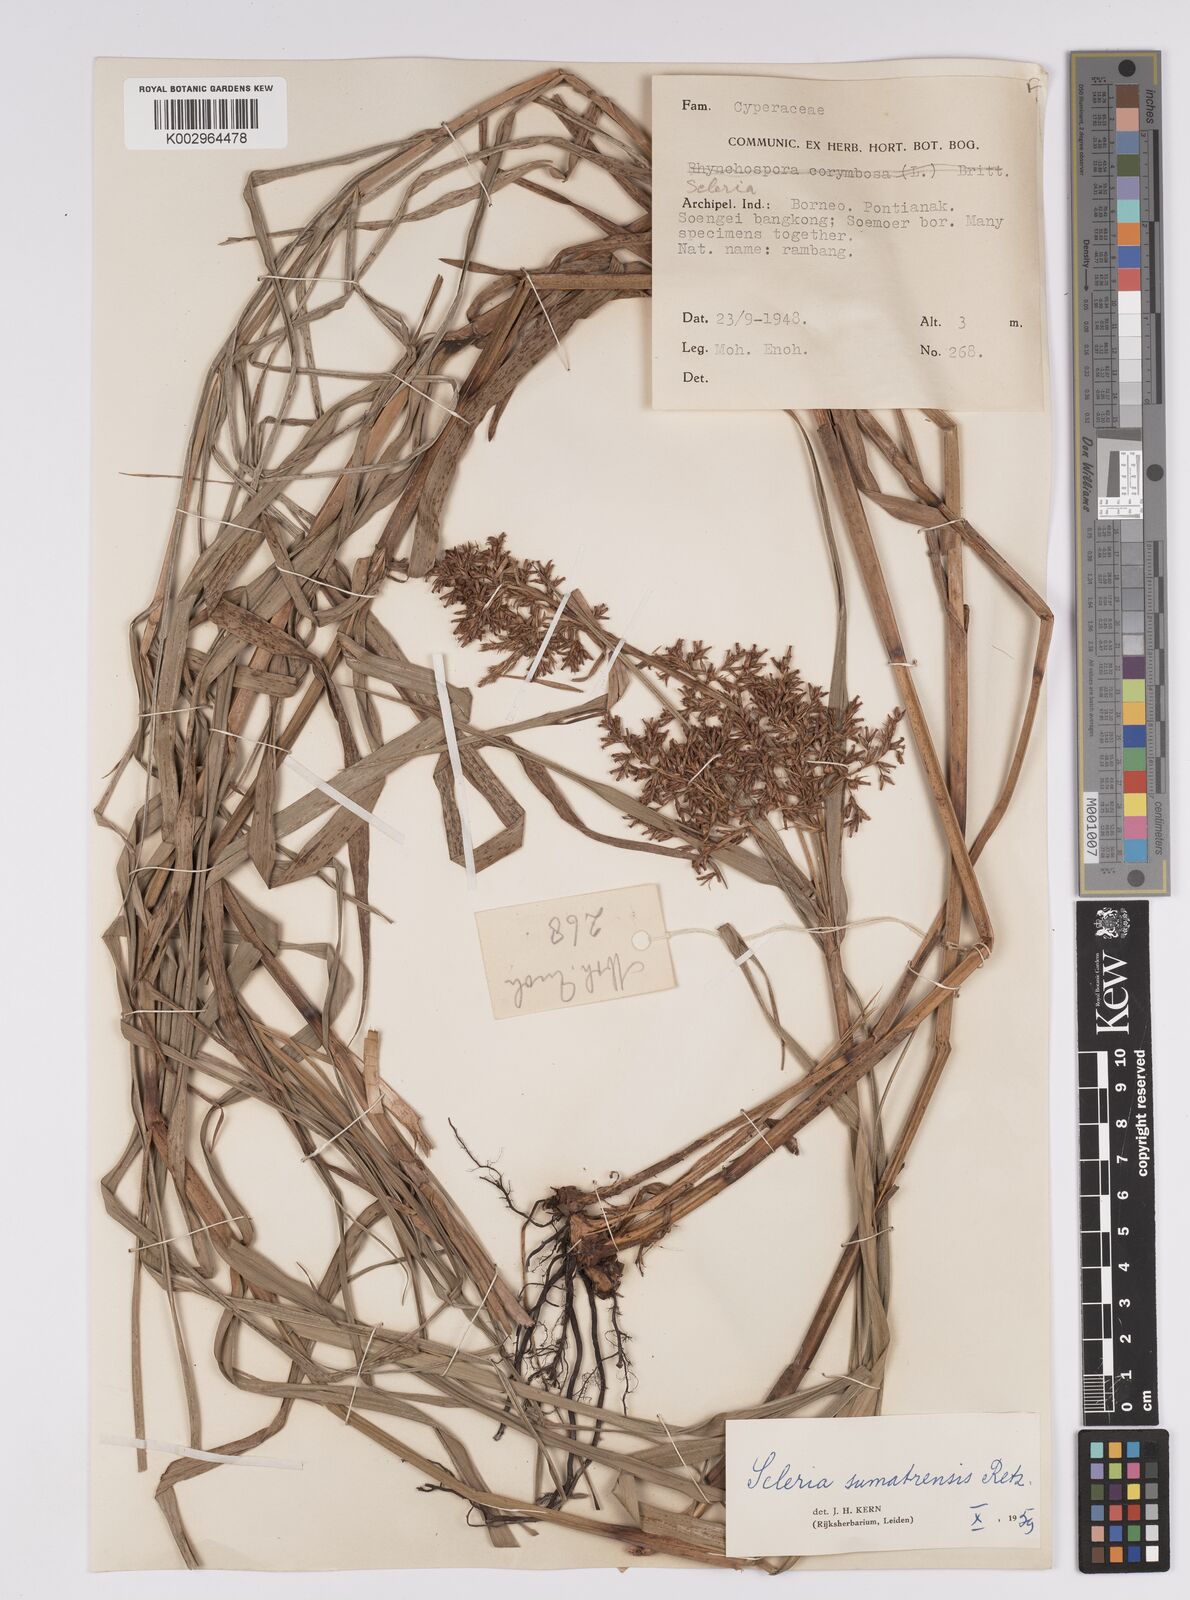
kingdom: Plantae
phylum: Tracheophyta
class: Liliopsida
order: Poales
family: Cyperaceae
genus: Scleria
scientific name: Scleria sumatrensis
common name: Sumatran scleria
